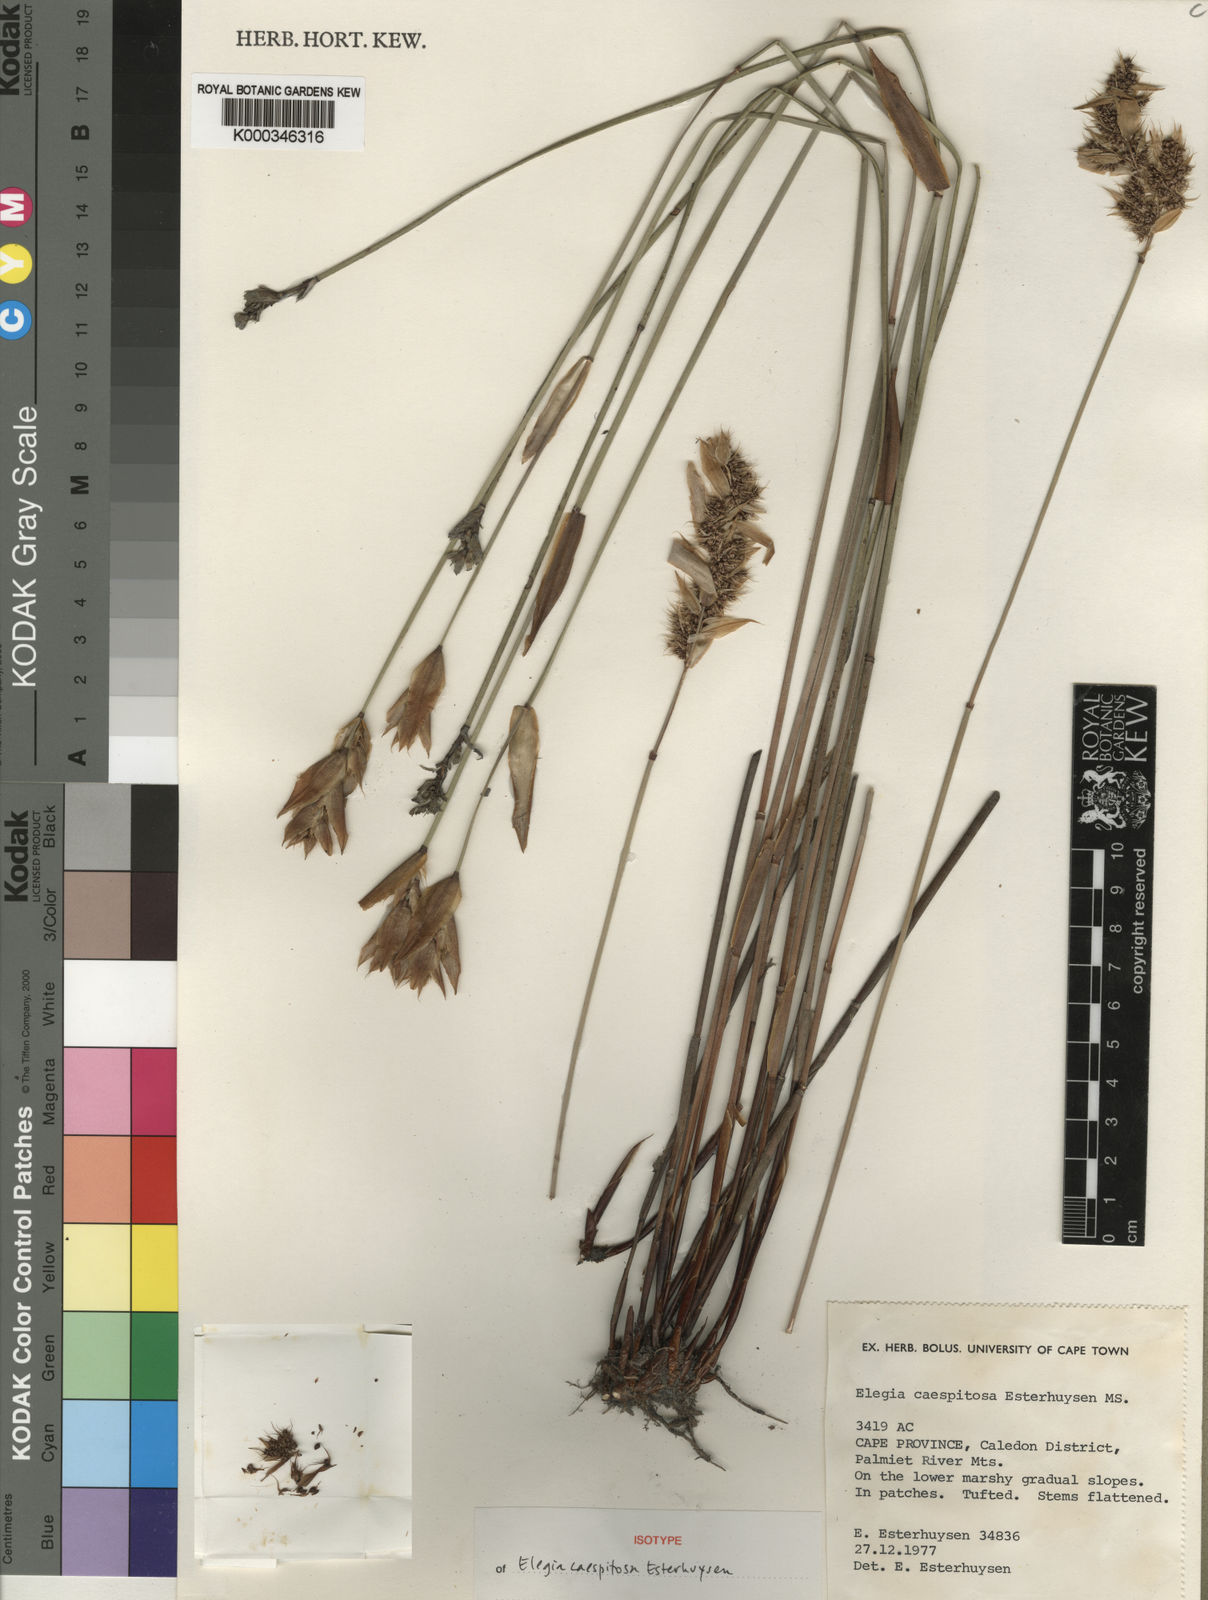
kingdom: Plantae
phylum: Tracheophyta
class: Liliopsida
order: Poales
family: Restionaceae
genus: Elegia
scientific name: Elegia caespitosa
